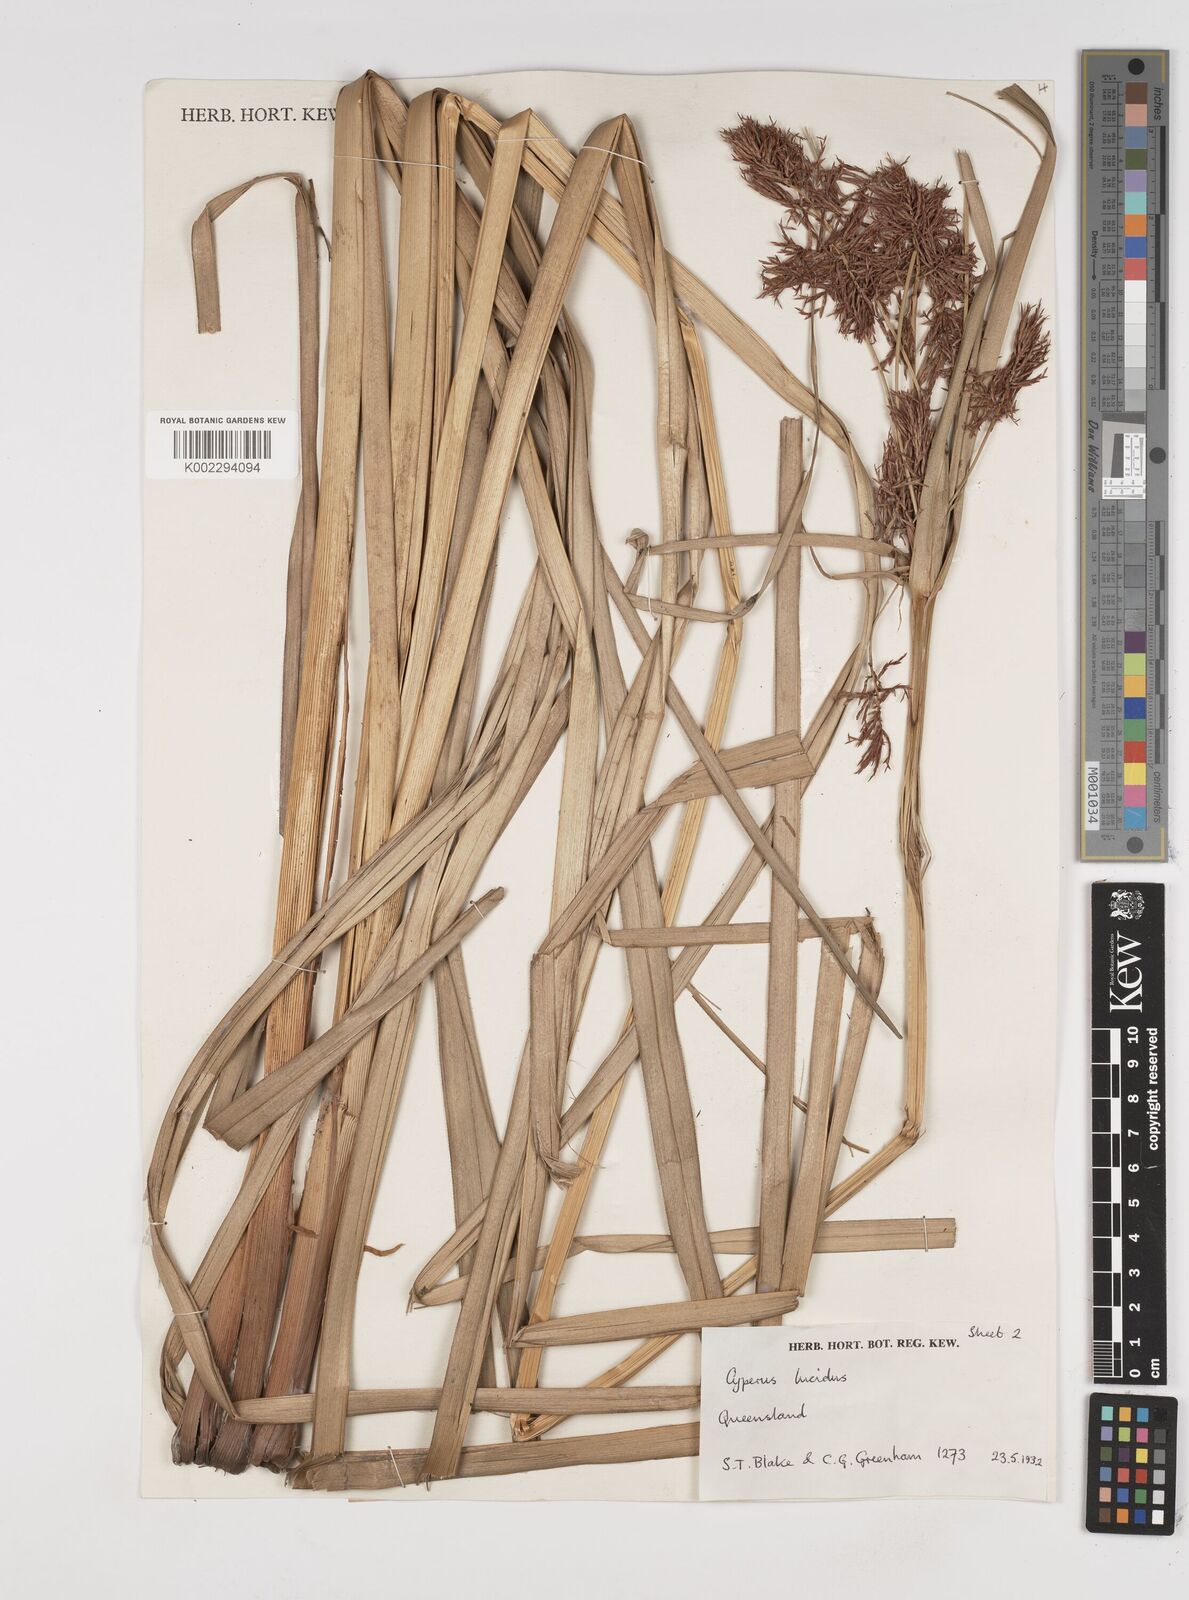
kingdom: Plantae
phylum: Tracheophyta
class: Liliopsida
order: Poales
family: Cyperaceae
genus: Cyperus
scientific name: Cyperus lucidus
